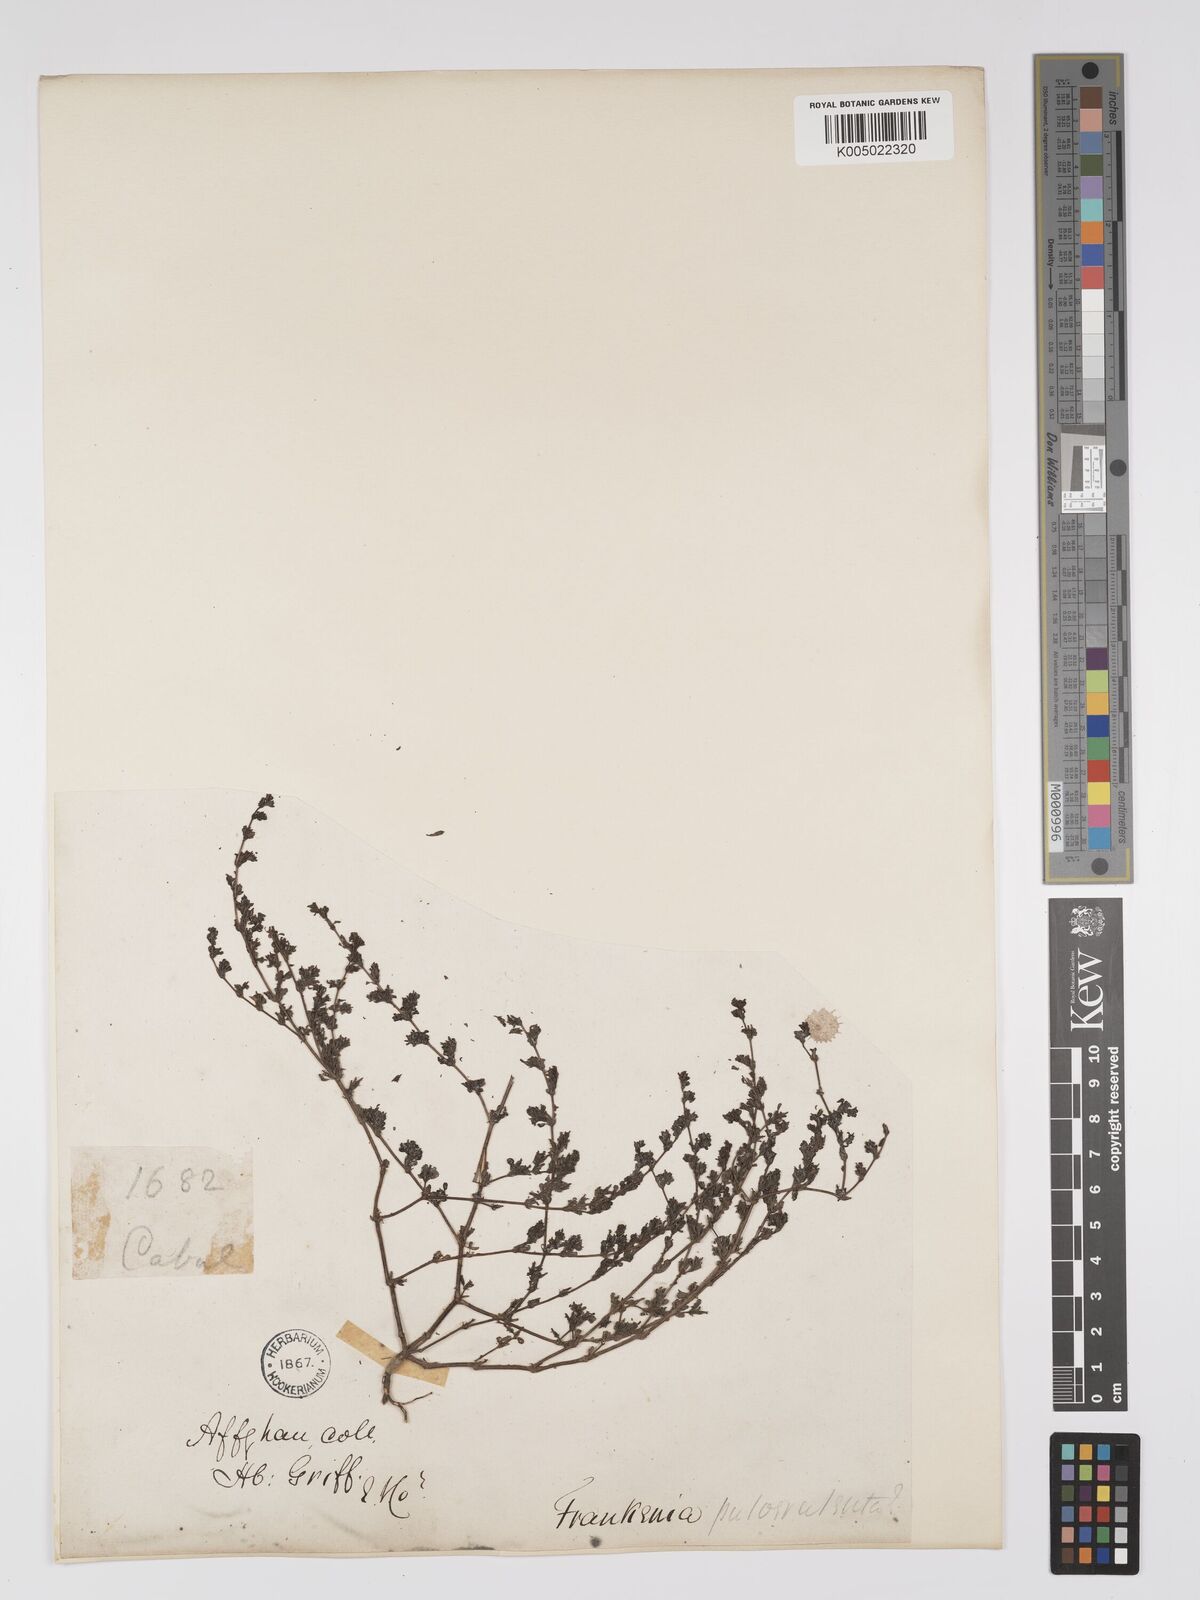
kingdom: Plantae
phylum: Tracheophyta
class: Magnoliopsida
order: Caryophyllales
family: Frankeniaceae
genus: Frankenia
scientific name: Frankenia pulverulenta
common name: European seaheath
